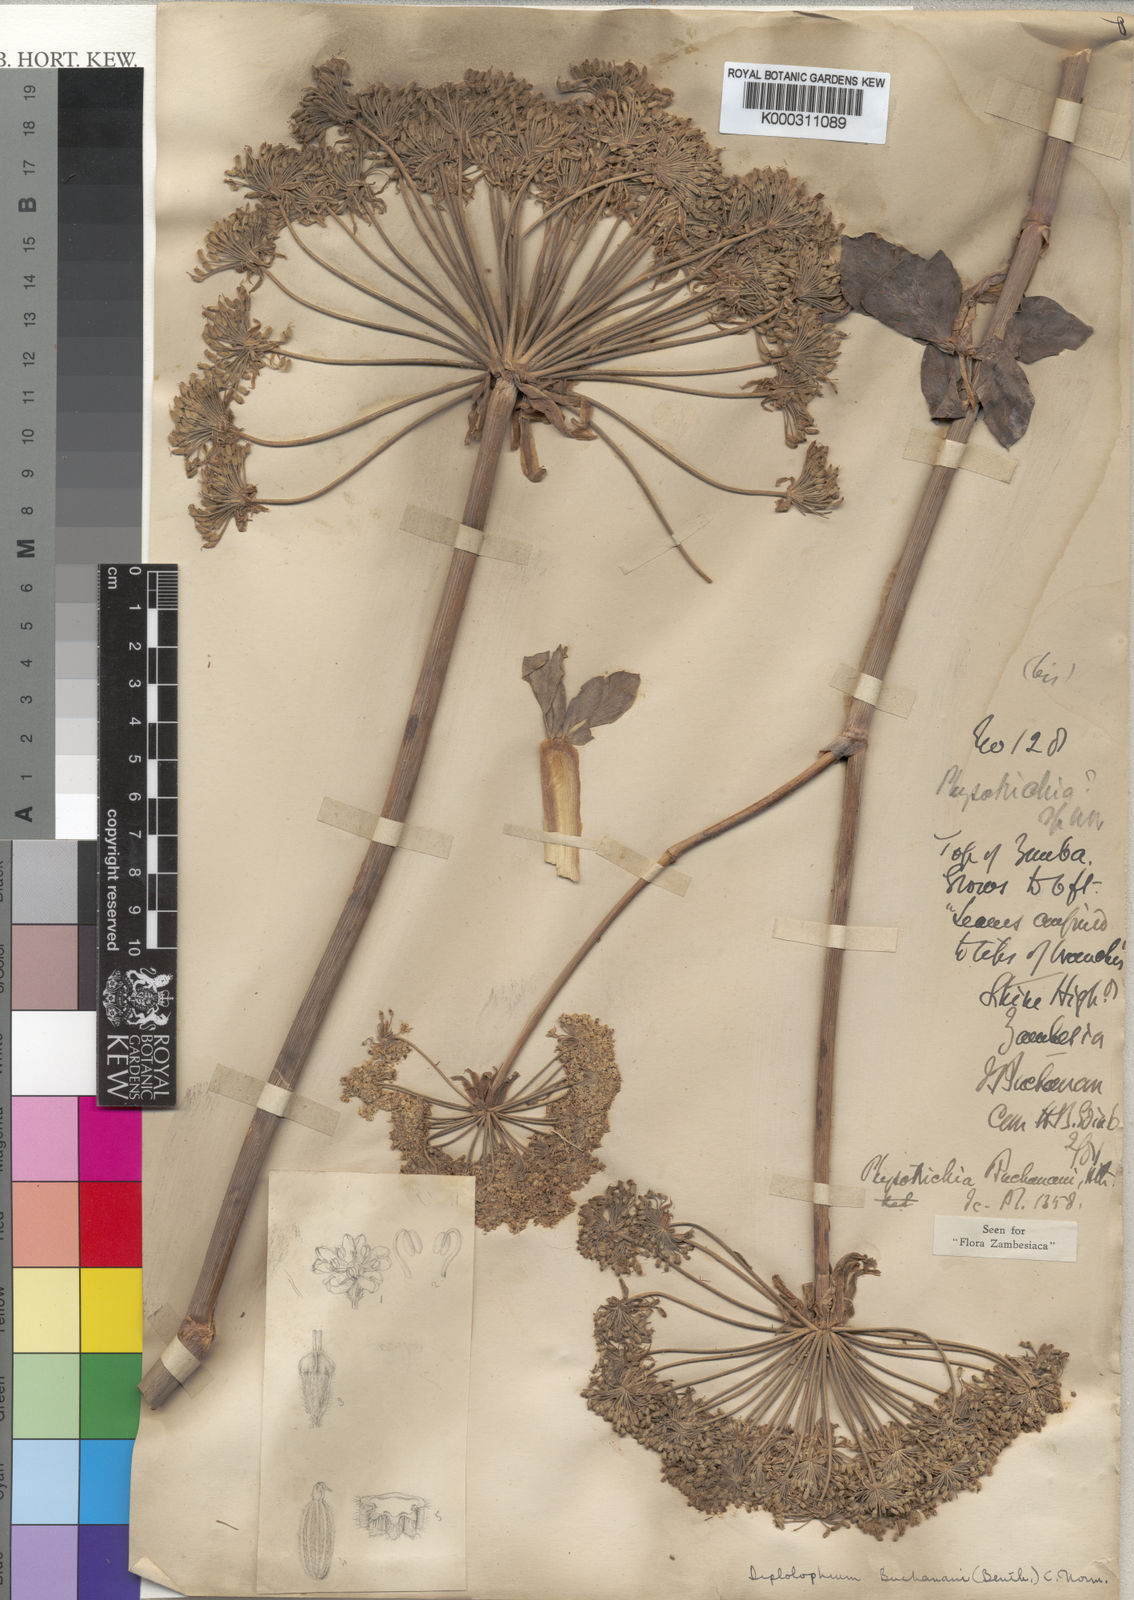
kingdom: Plantae
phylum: Tracheophyta
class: Magnoliopsida
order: Apiales
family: Apiaceae
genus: Diplolophium
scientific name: Diplolophium buchananii
